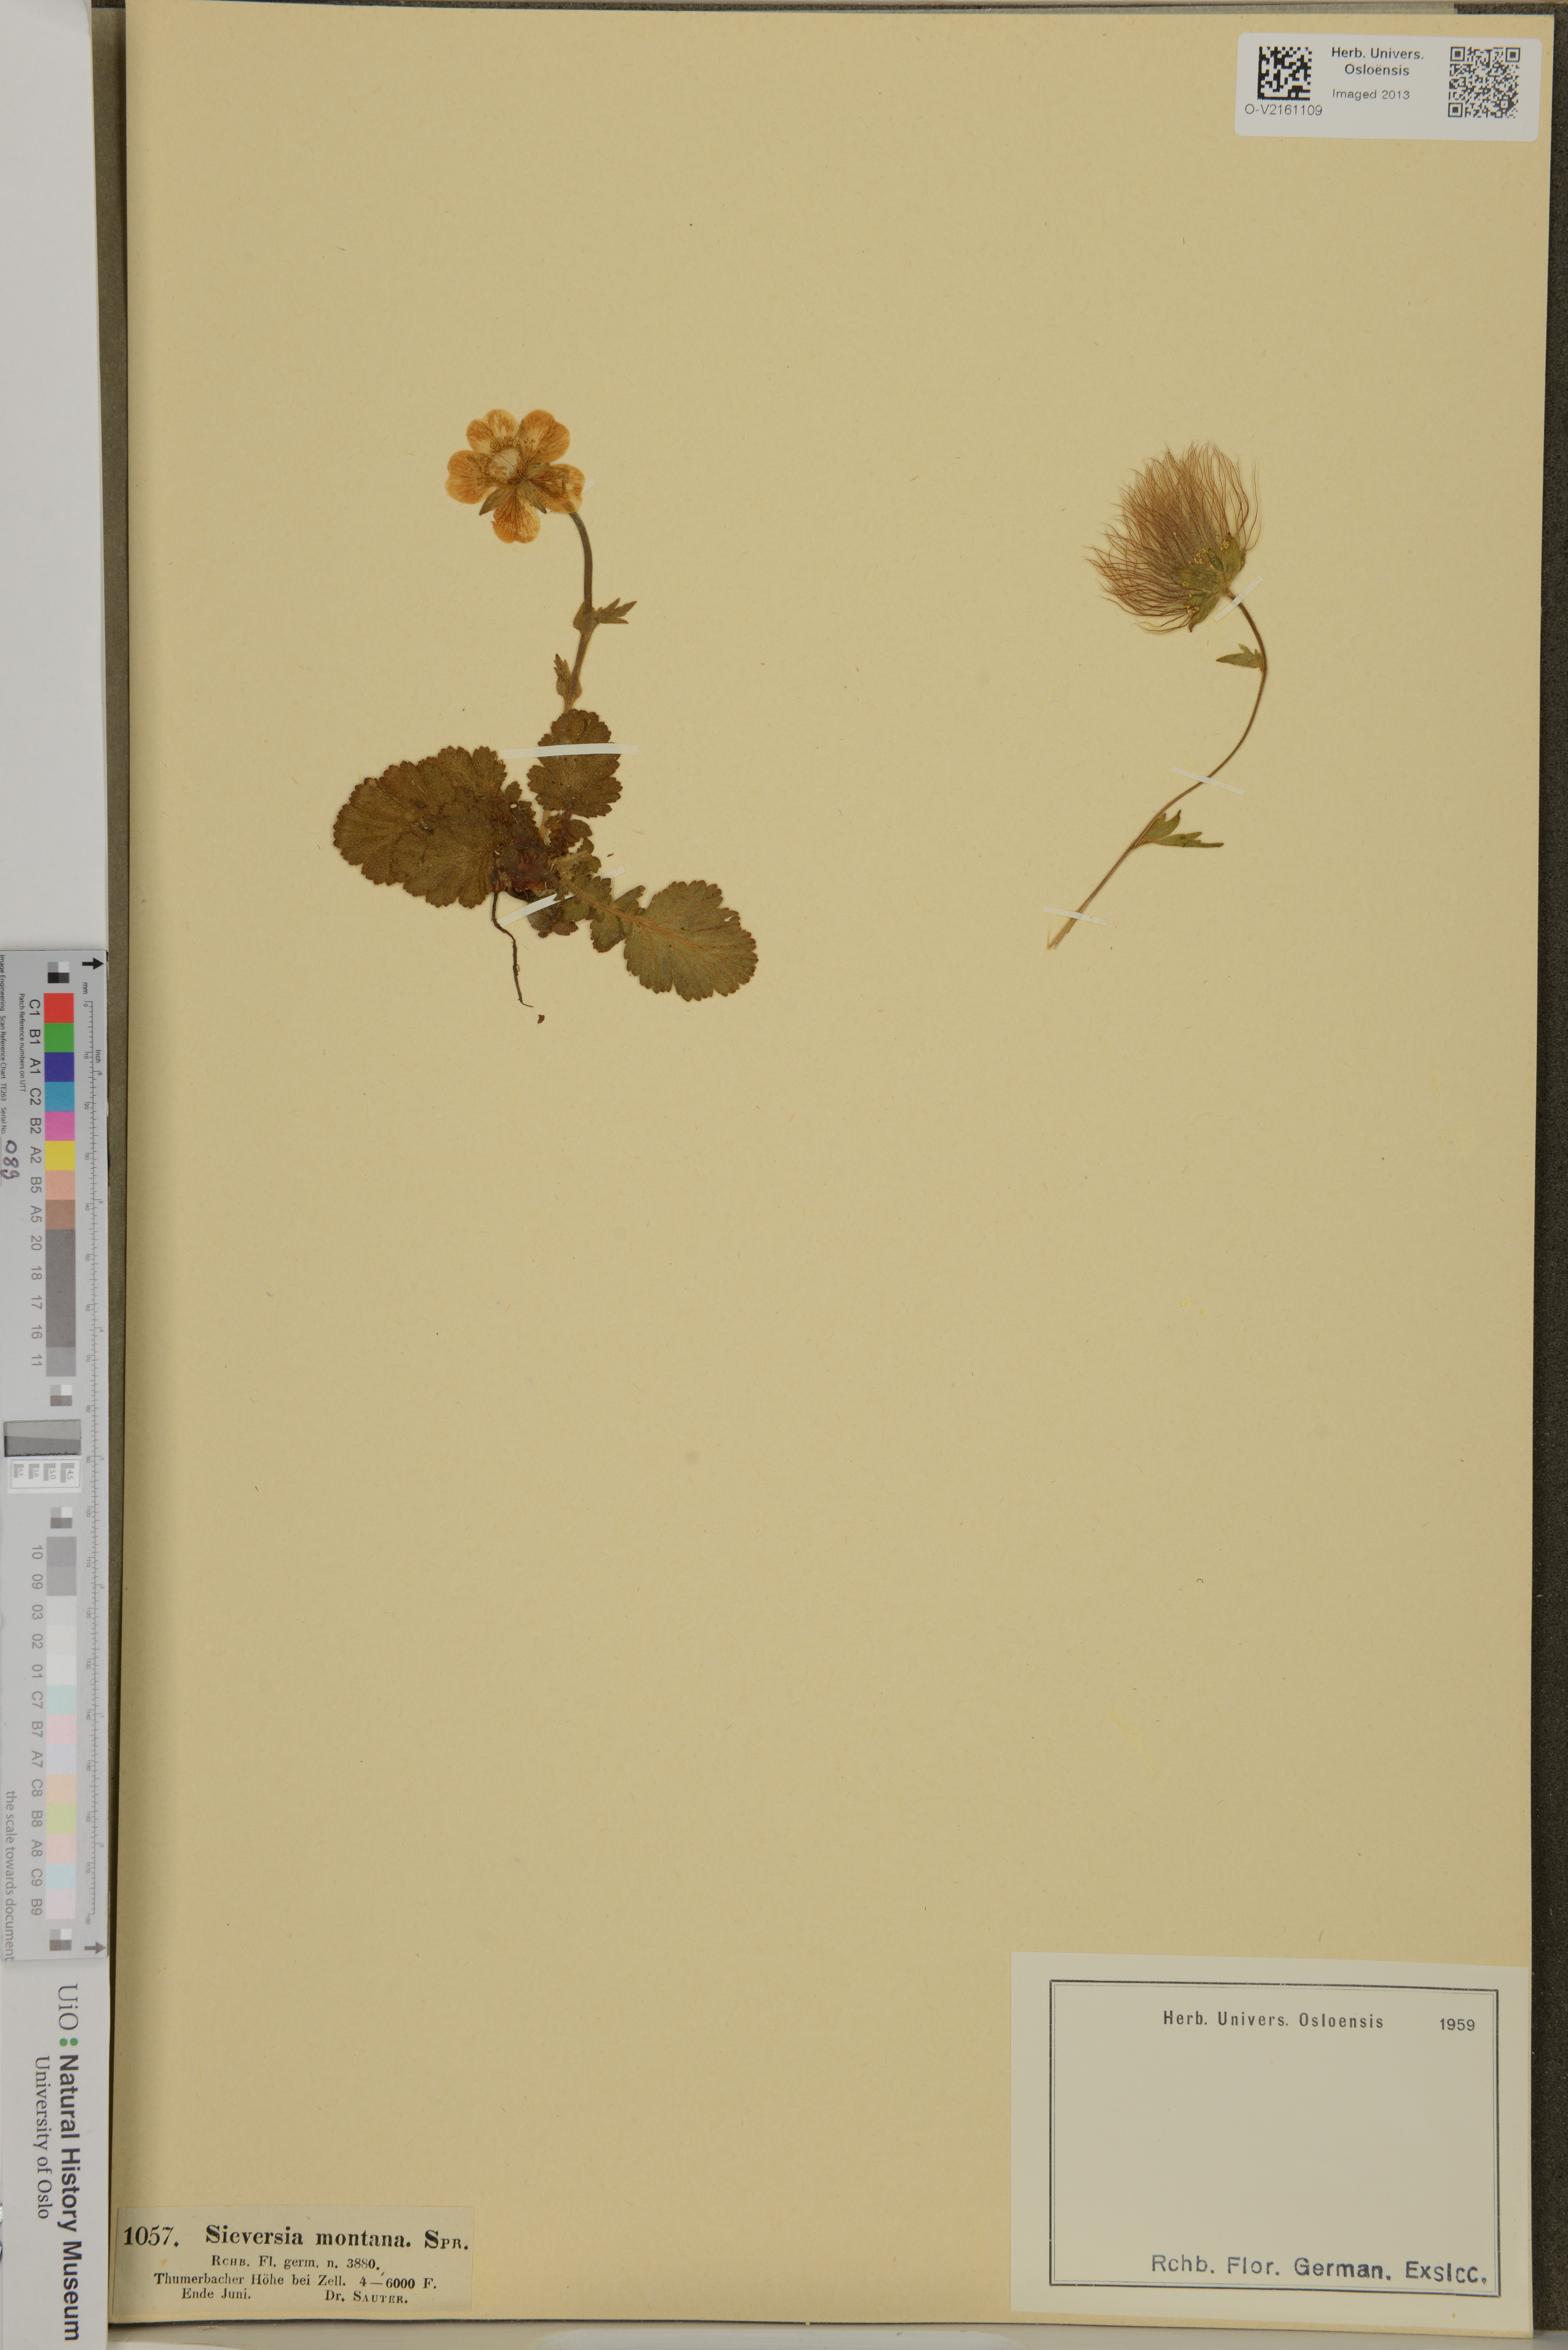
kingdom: Plantae
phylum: Tracheophyta
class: Magnoliopsida
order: Rosales
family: Rosaceae
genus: Geum
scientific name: Geum montanum
